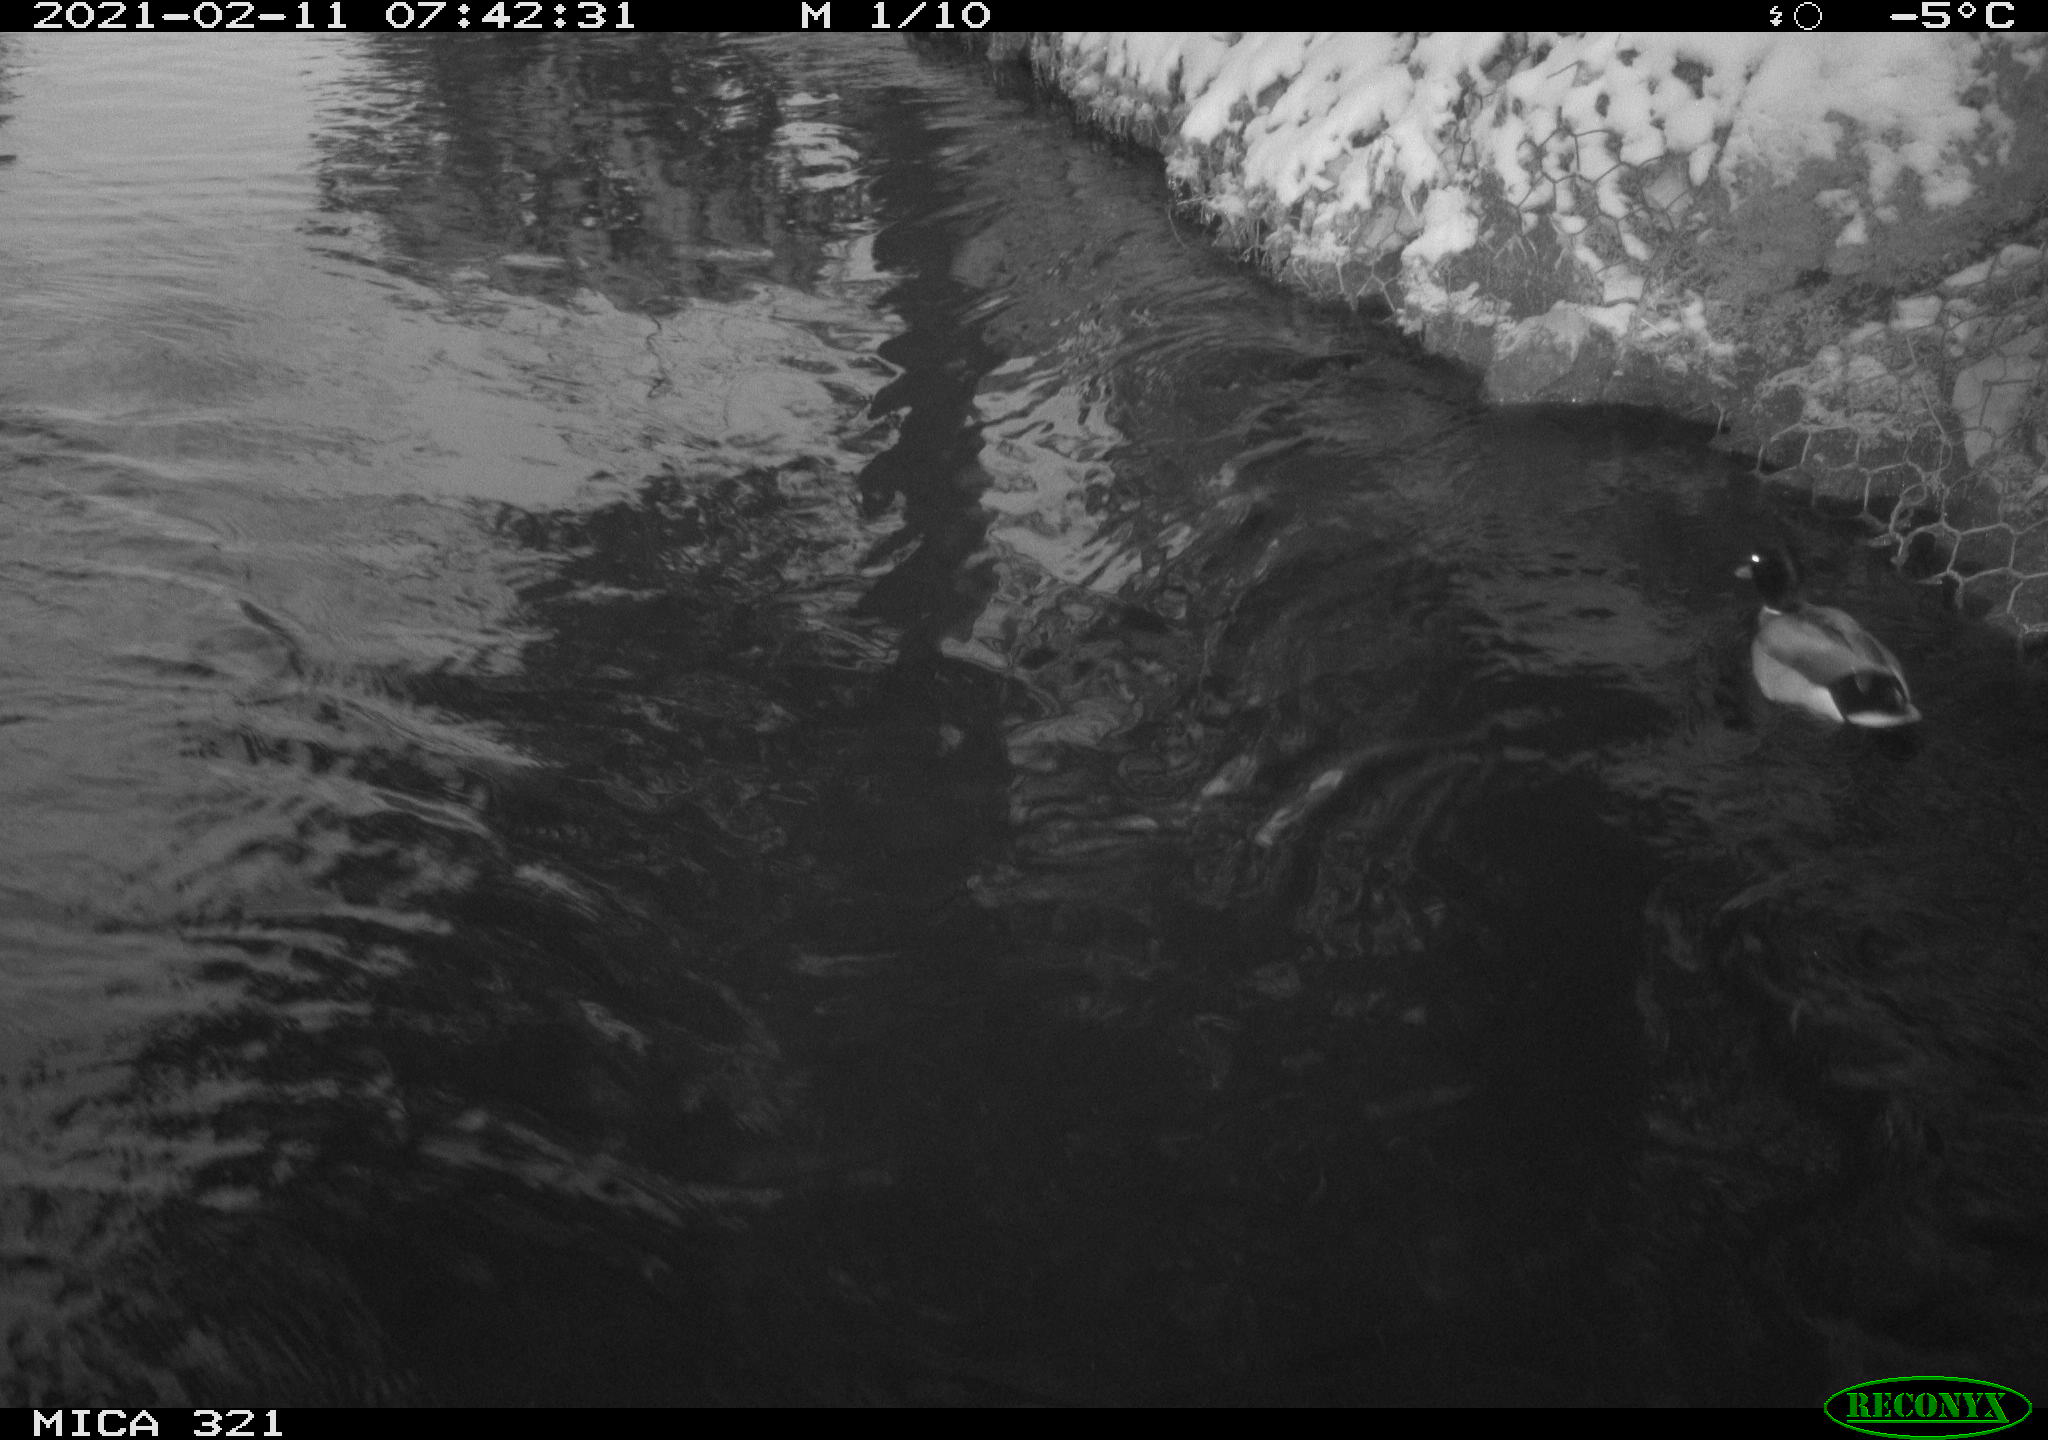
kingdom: Animalia
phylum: Chordata
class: Aves
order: Anseriformes
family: Anatidae
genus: Anas
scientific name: Anas platyrhynchos
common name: Mallard
